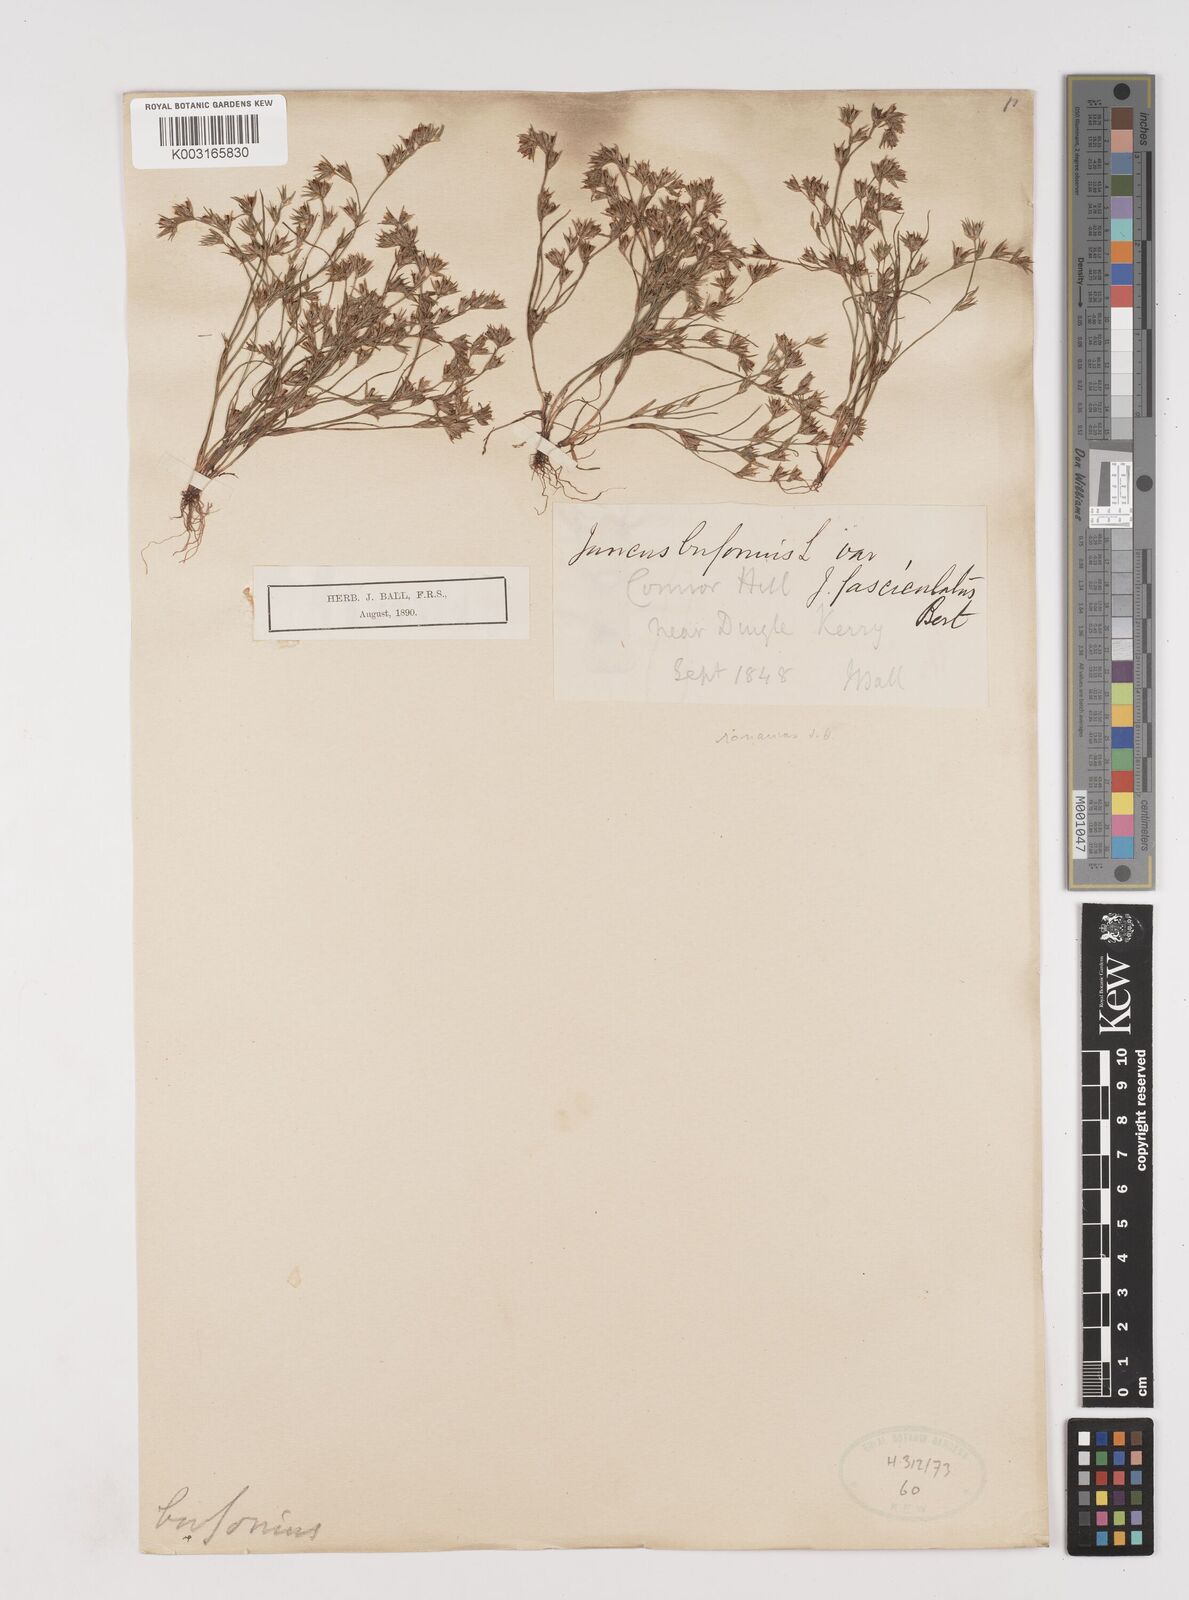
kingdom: Plantae
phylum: Tracheophyta
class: Liliopsida
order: Poales
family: Juncaceae
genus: Juncus
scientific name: Juncus bufonius
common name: Toad rush
